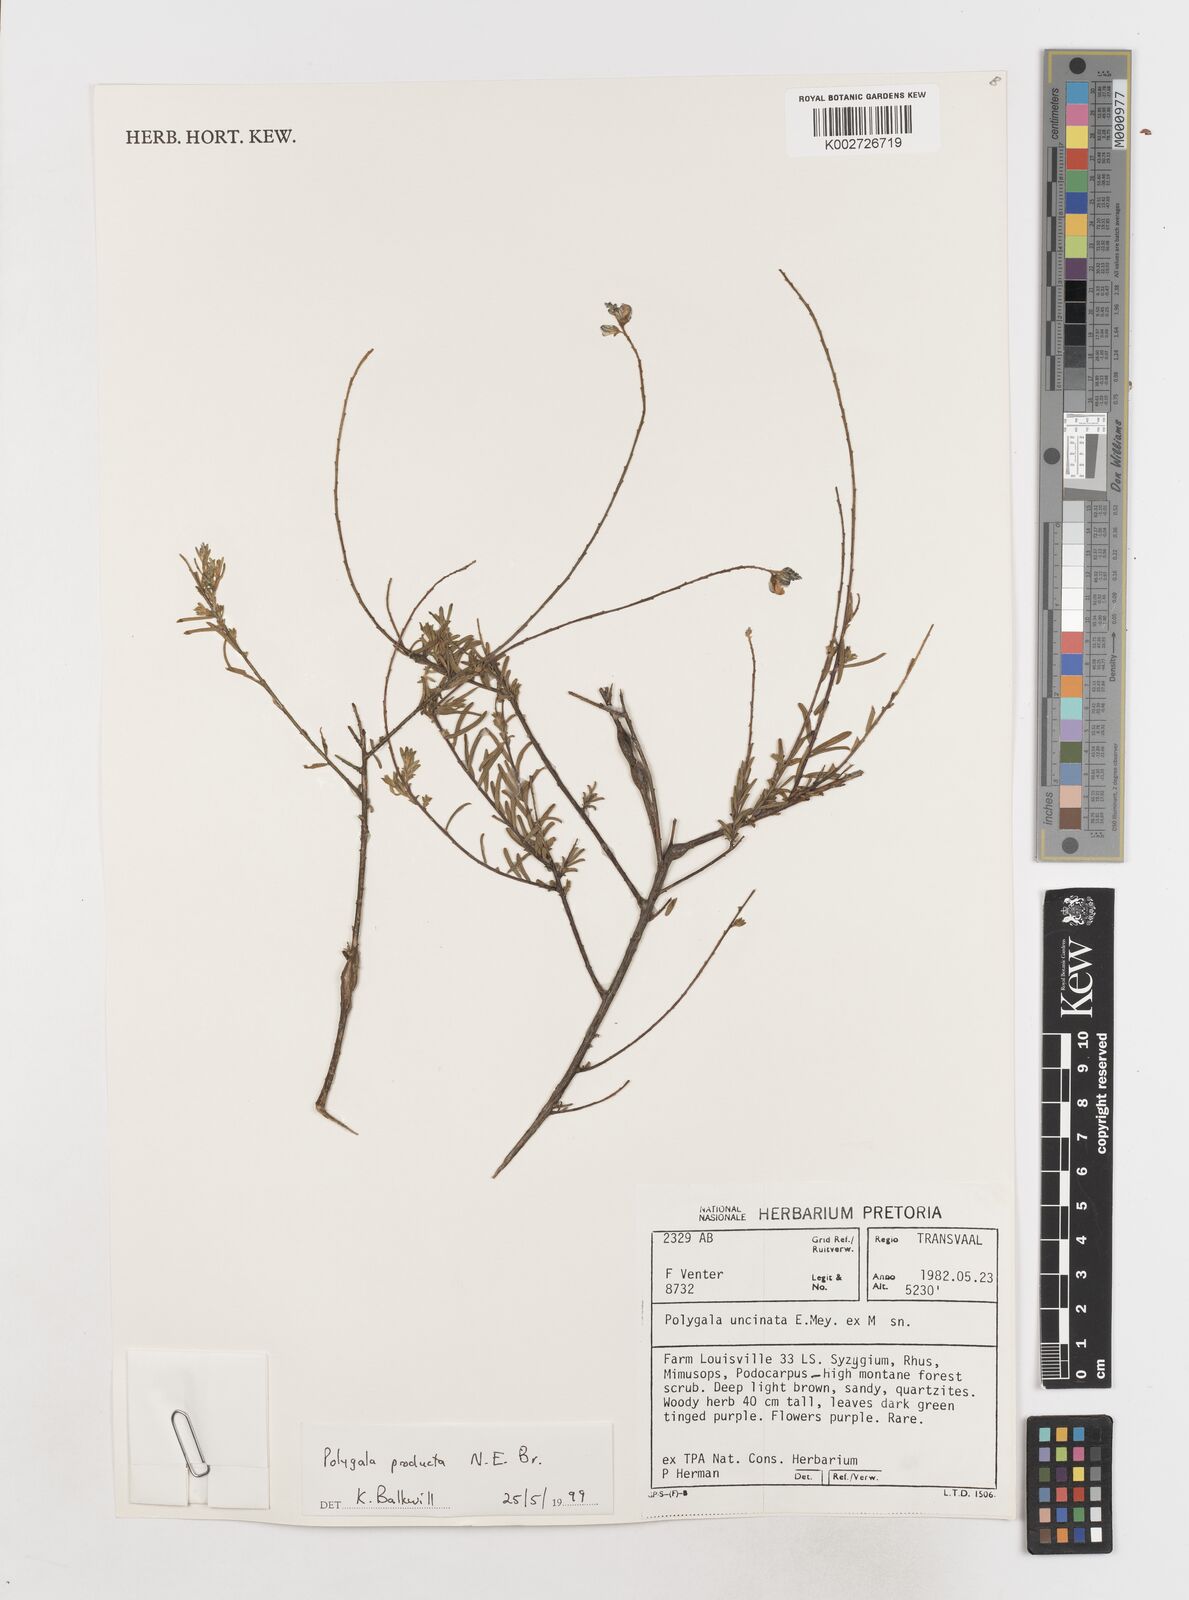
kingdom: Plantae
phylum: Tracheophyta
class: Magnoliopsida
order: Fabales
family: Polygalaceae
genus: Polygala
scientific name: Polygala producta
